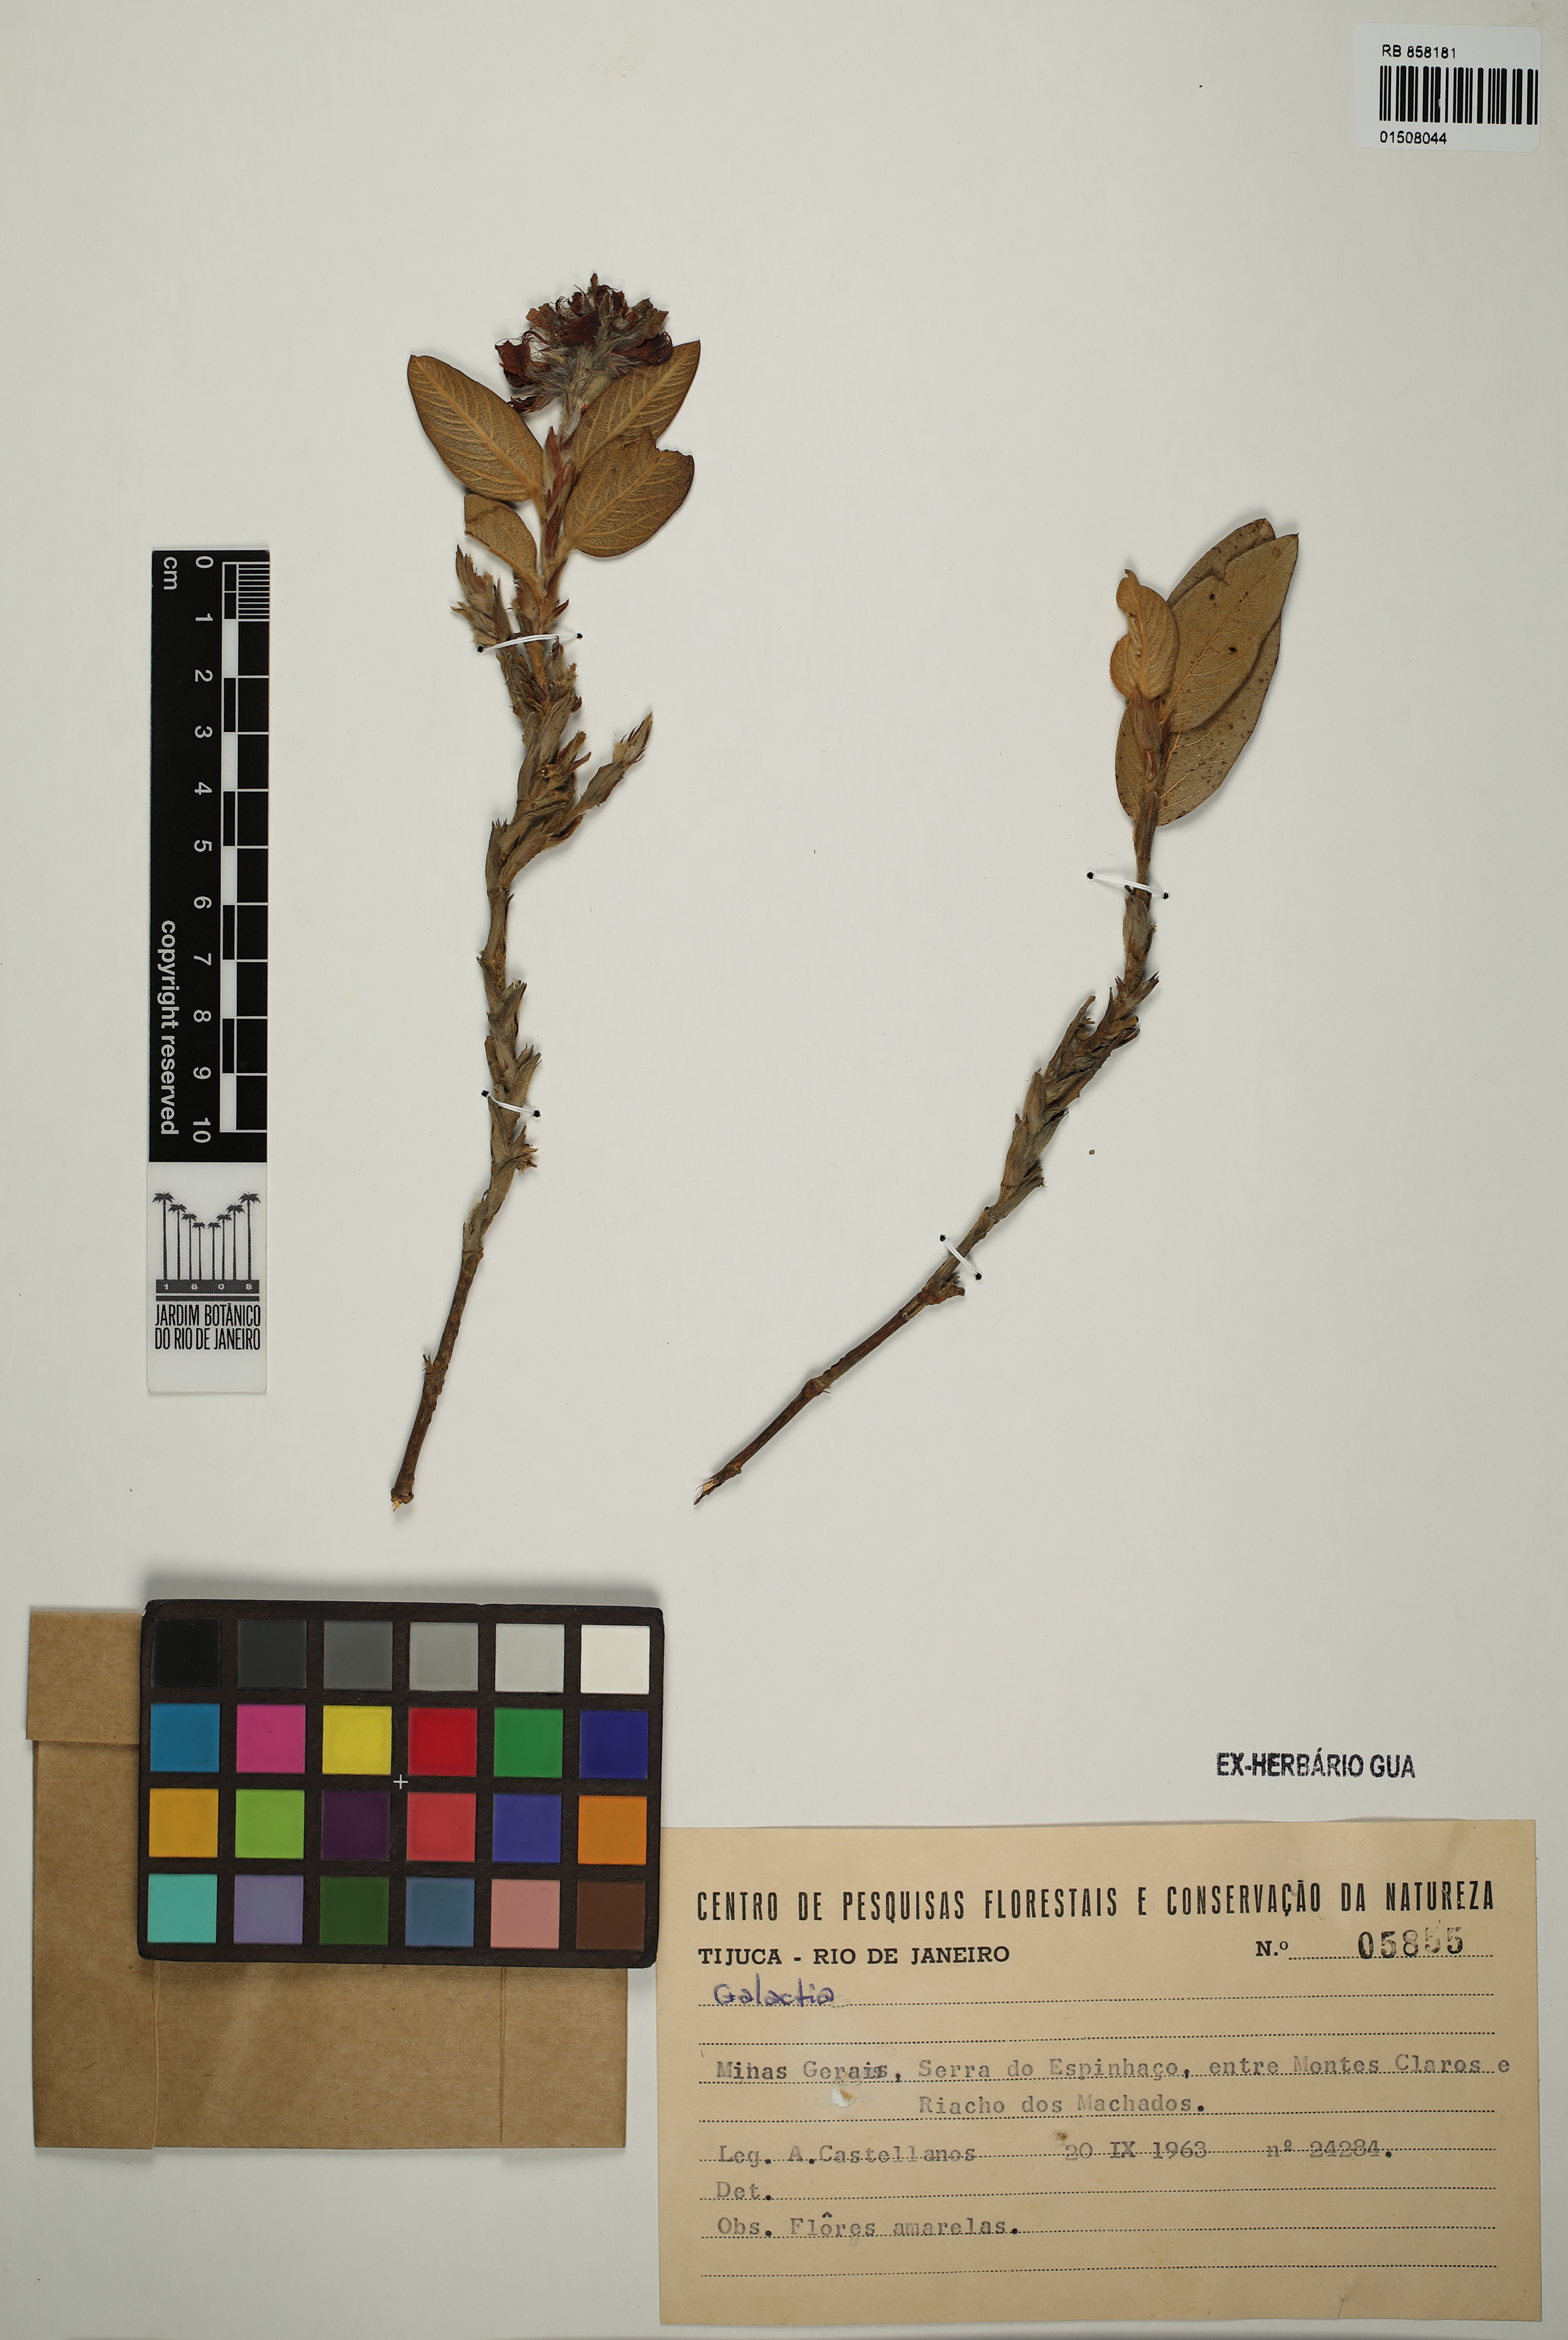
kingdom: Plantae
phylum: Tracheophyta
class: Magnoliopsida
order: Fabales
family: Fabaceae
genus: Galactia
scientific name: Galactia
